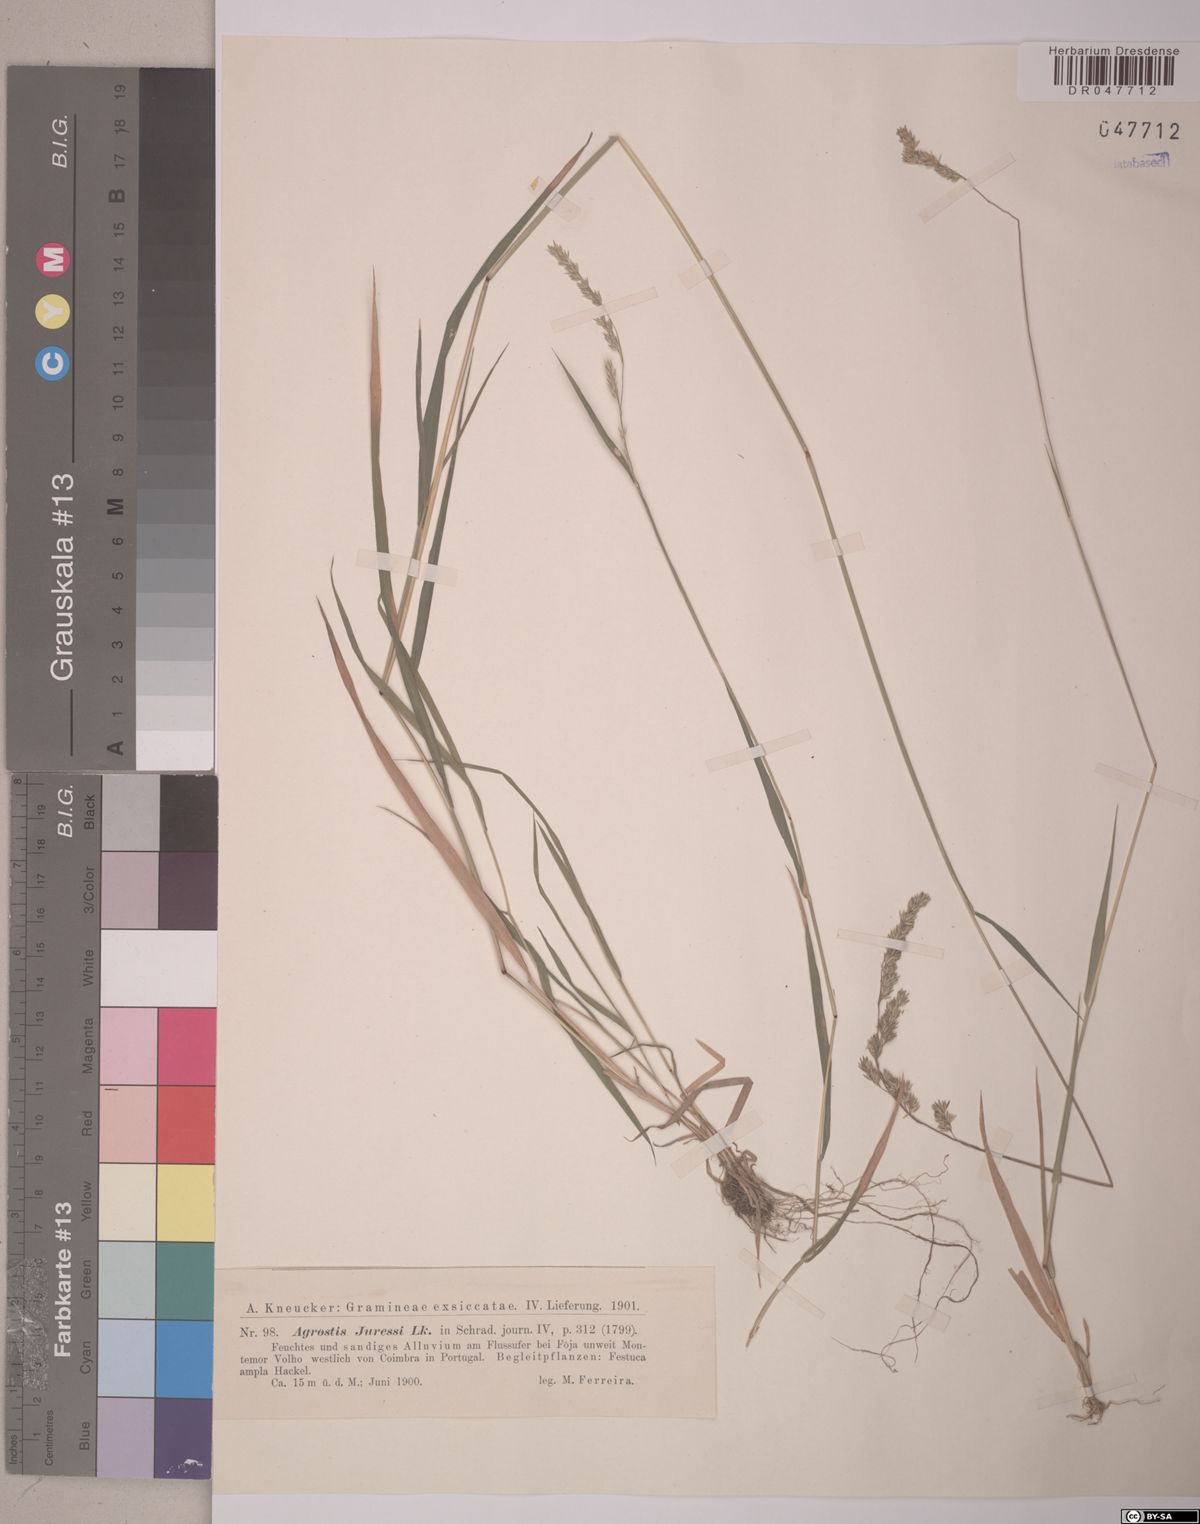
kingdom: Plantae
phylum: Tracheophyta
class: Liliopsida
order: Poales
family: Poaceae
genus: Agrostis
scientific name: Agrostis juressi
